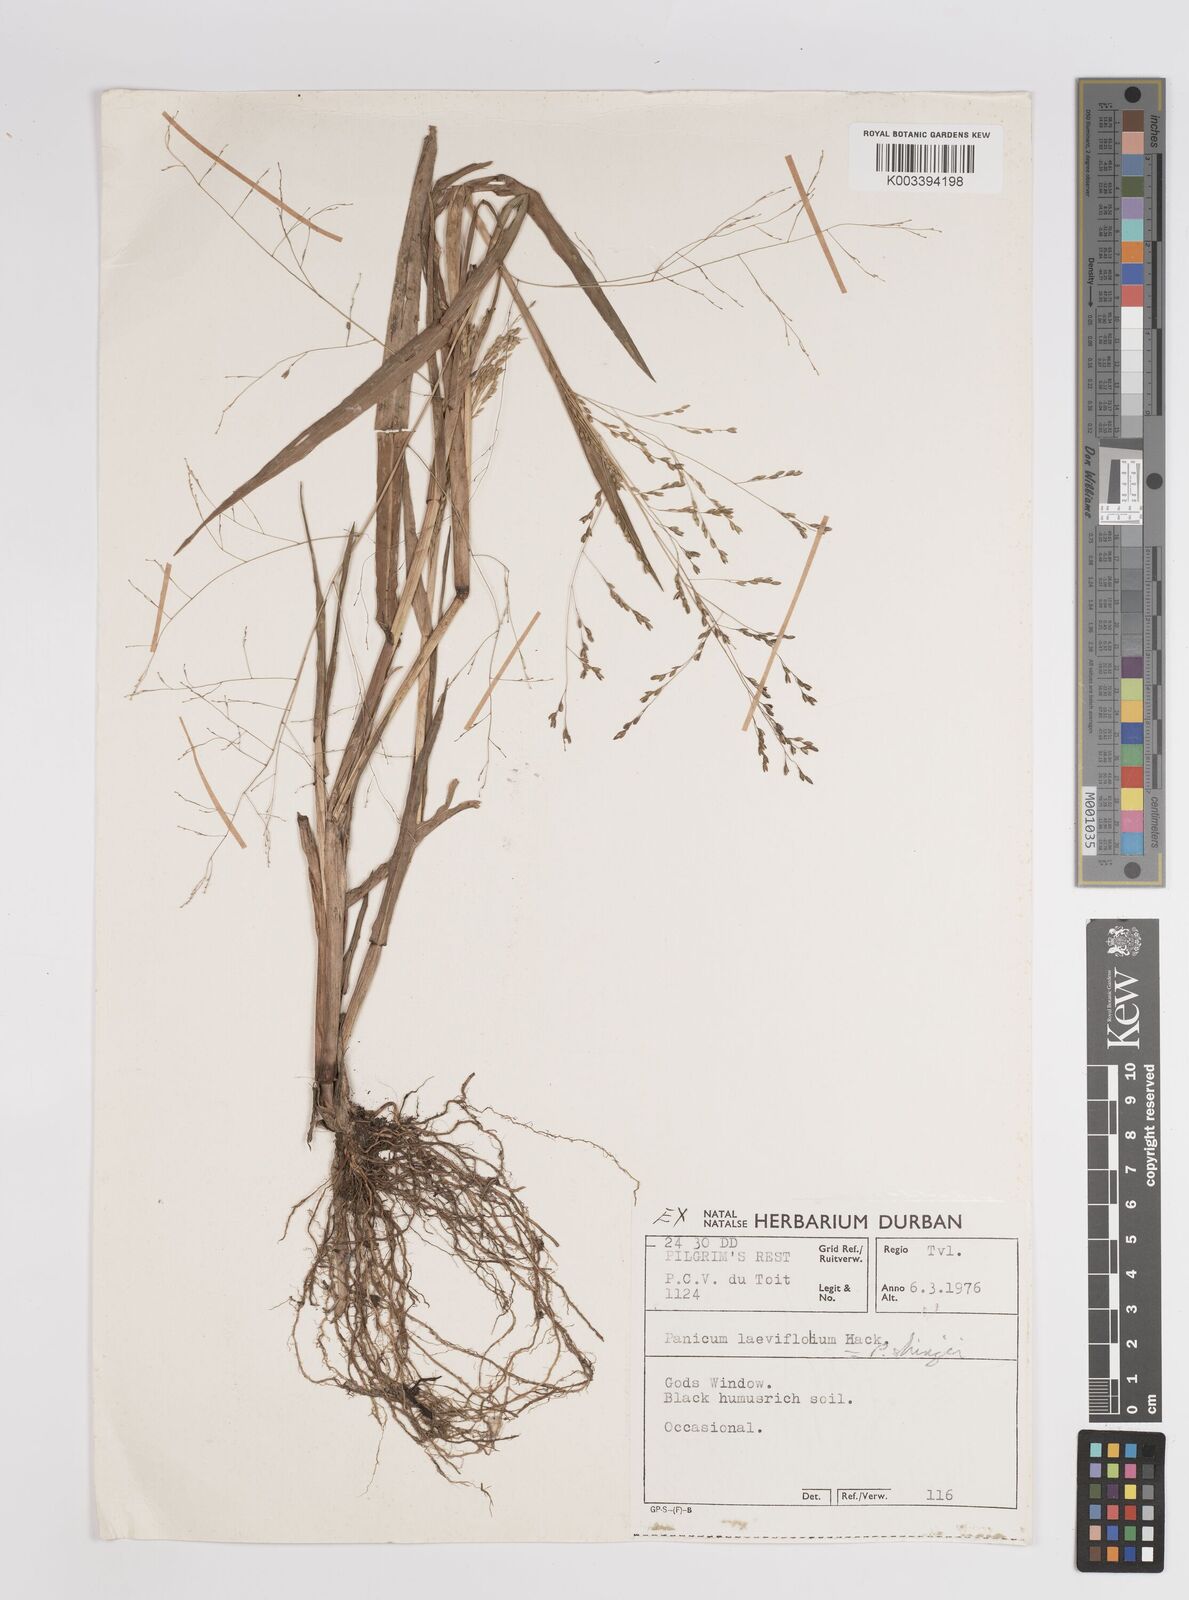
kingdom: Plantae
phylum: Tracheophyta
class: Liliopsida
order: Poales
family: Poaceae
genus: Panicum
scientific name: Panicum schinzii
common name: Sweet grass
